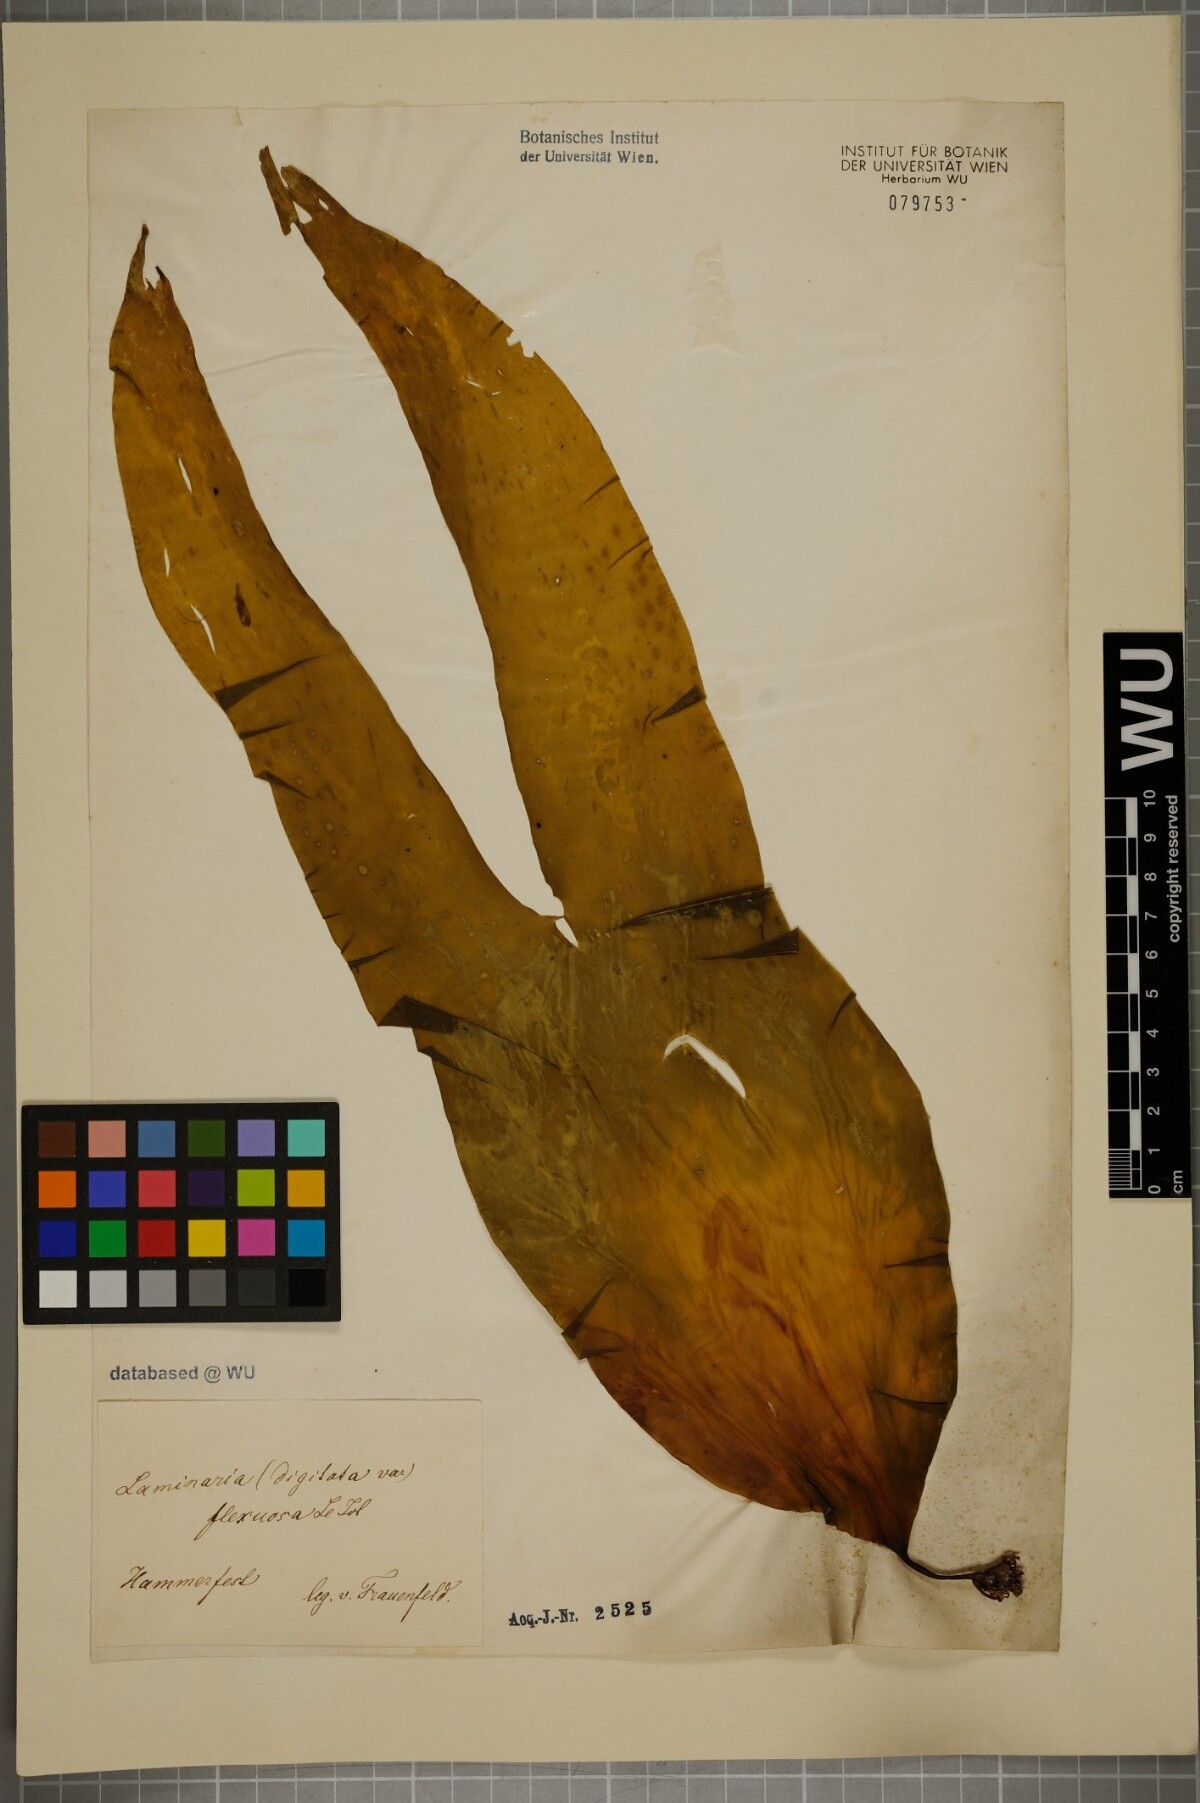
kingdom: Chromista
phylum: Ochrophyta
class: Phaeophyceae
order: Laminariales
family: Laminariaceae
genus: Laminaria
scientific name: Laminaria digitata
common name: Oarweed
